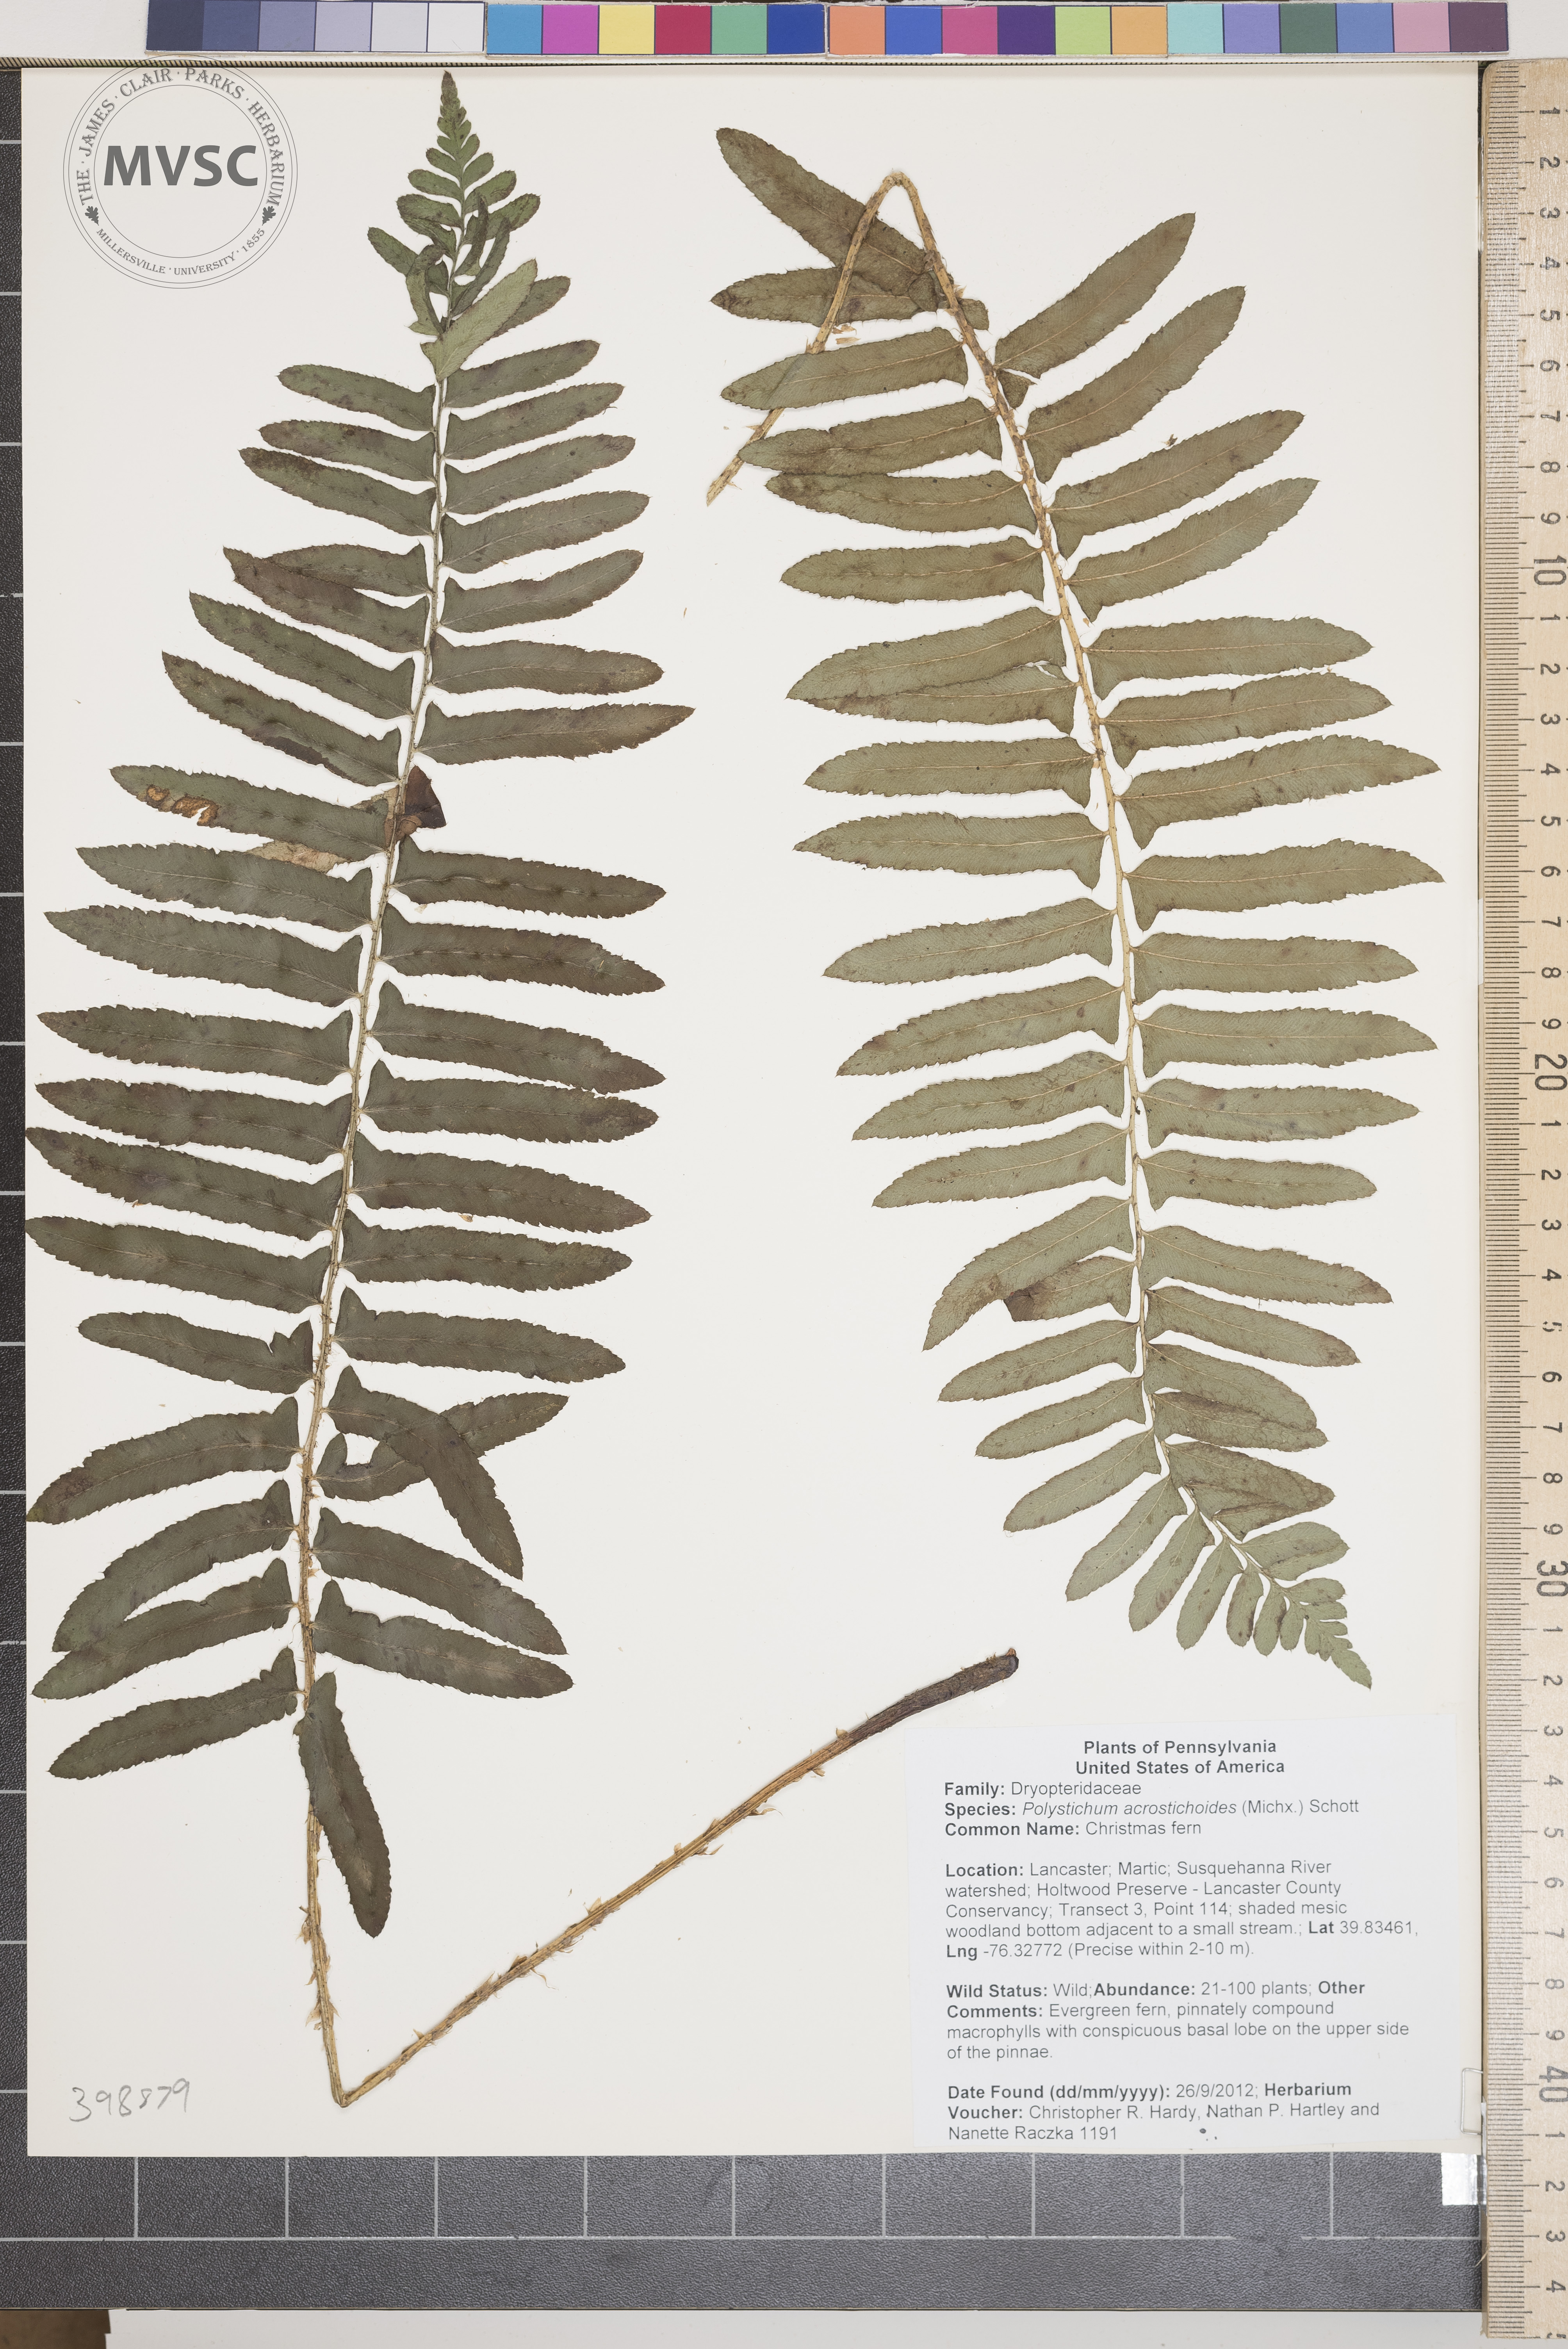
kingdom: Plantae
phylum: Tracheophyta
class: Polypodiopsida
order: Polypodiales
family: Dryopteridaceae
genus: Polystichum
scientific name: Polystichum acrostichoides
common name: Christmas fern
